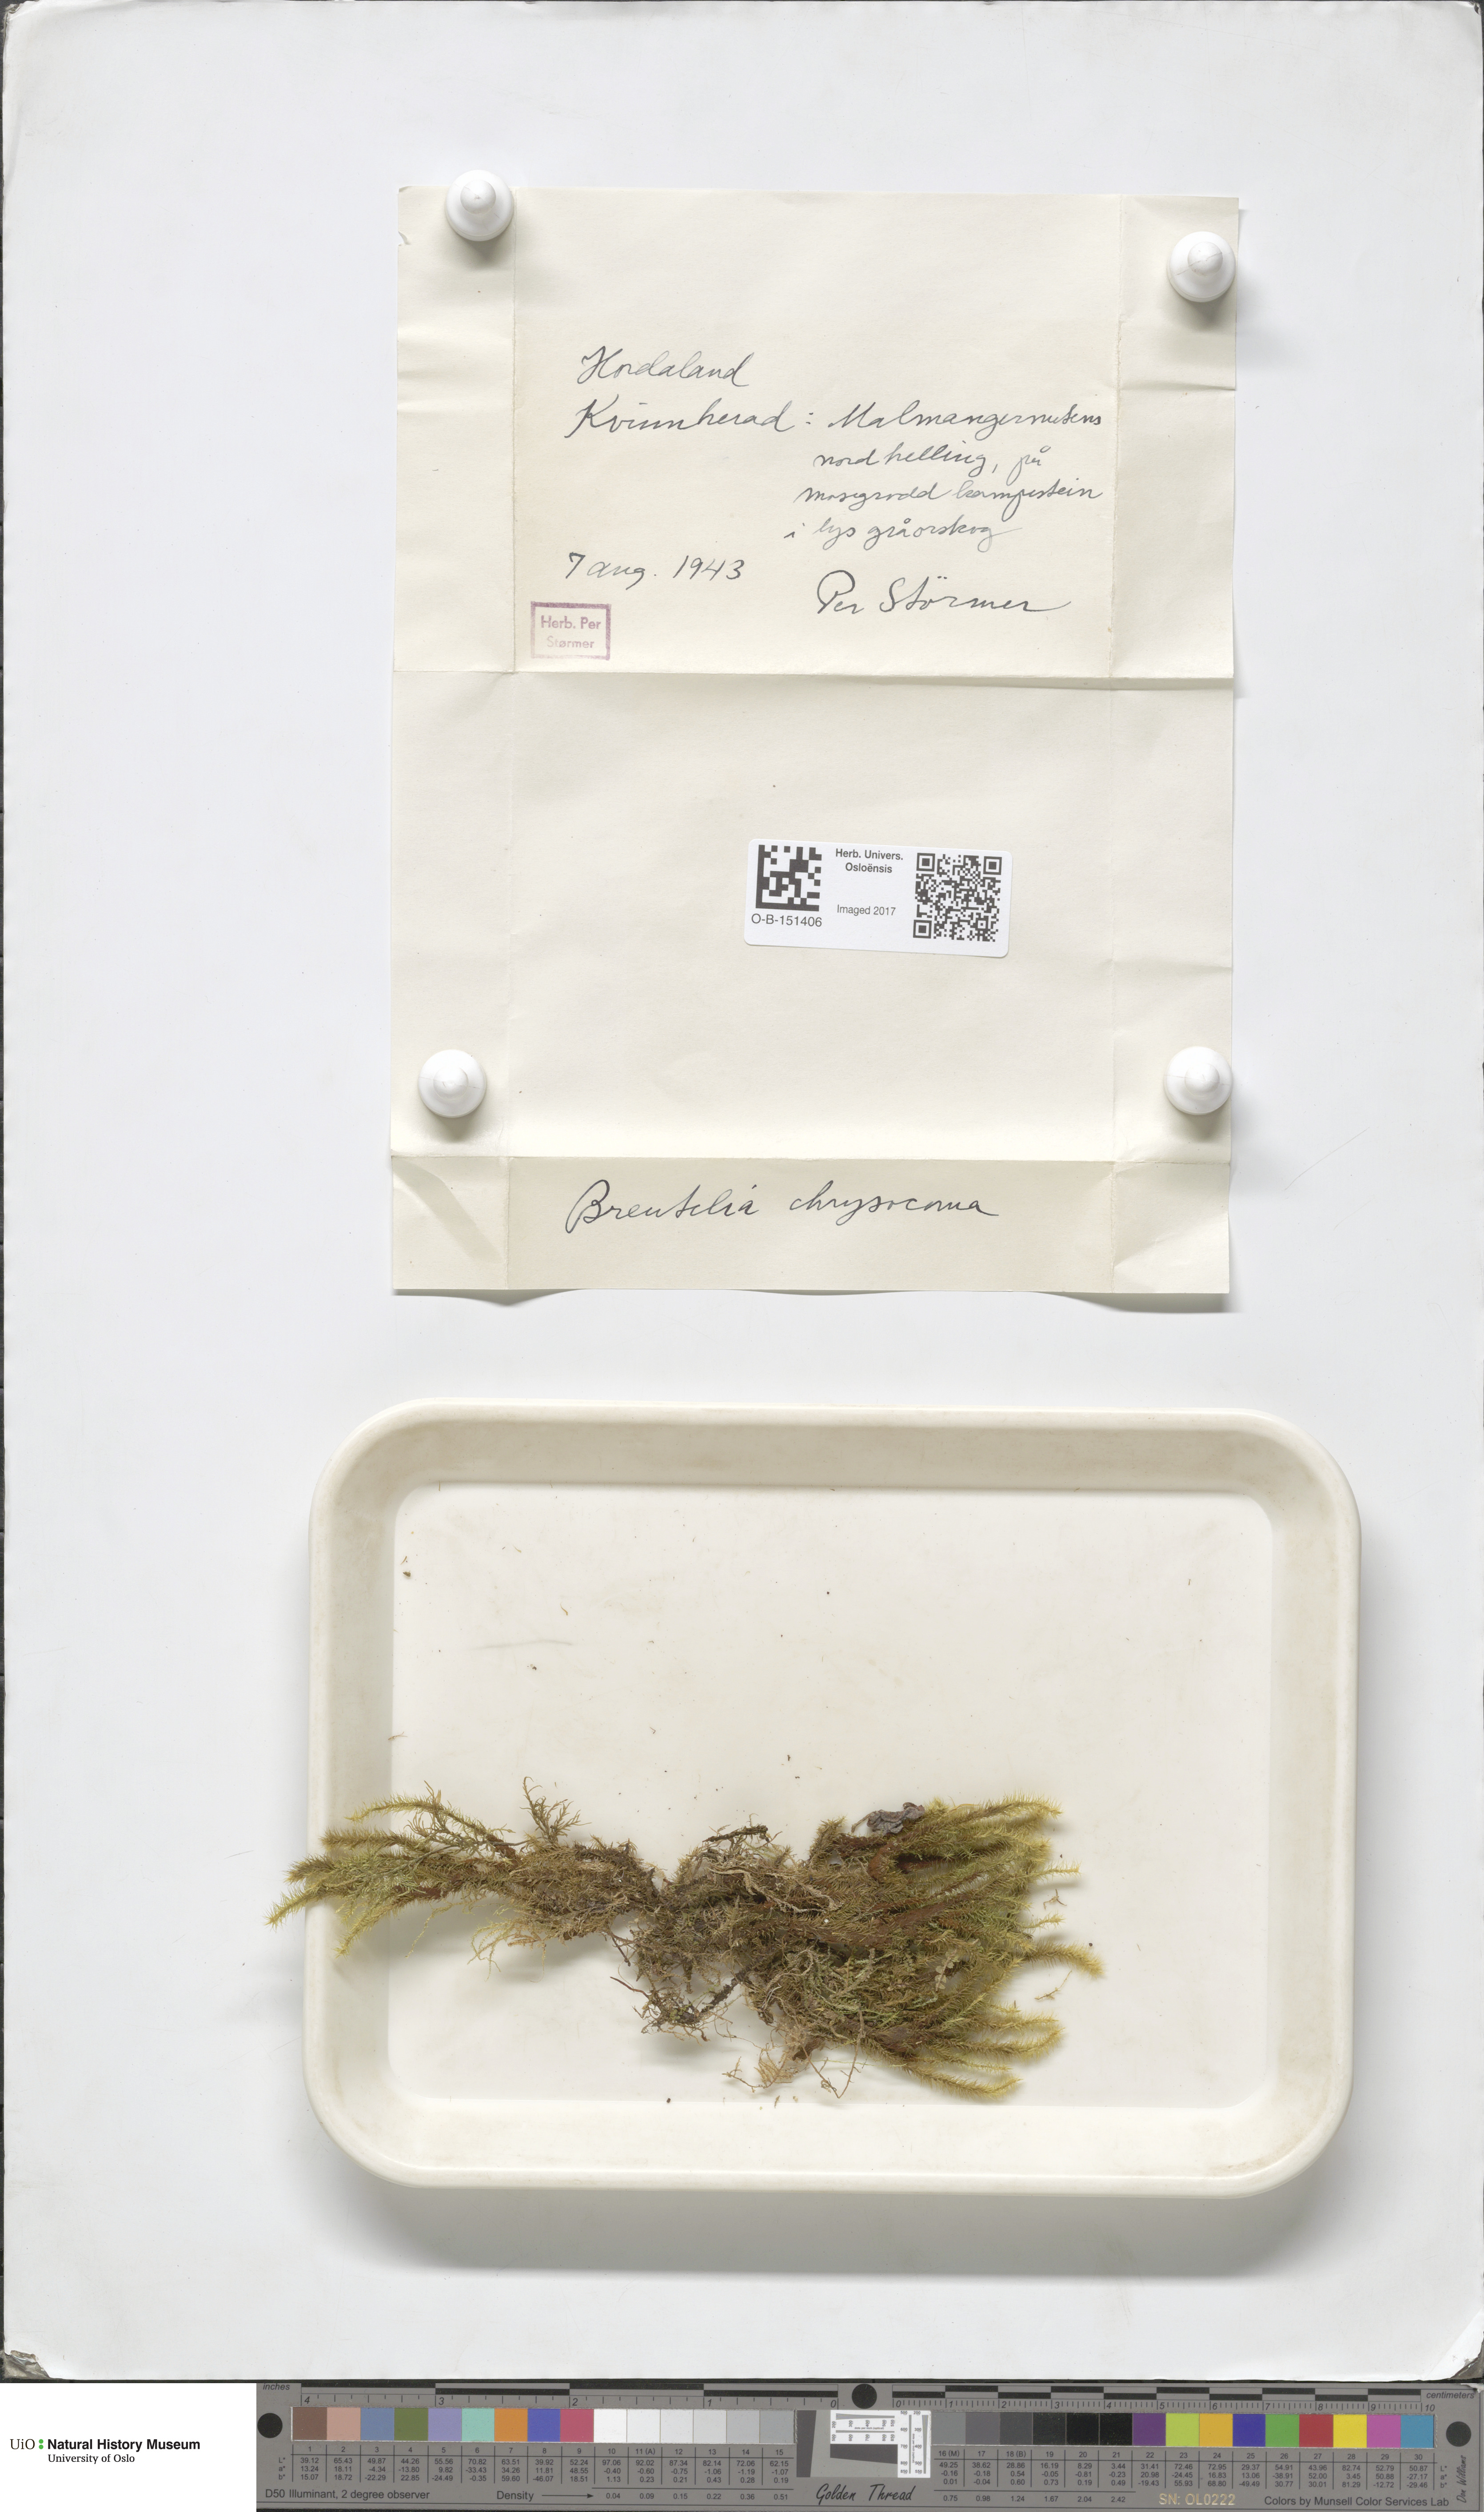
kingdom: Plantae
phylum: Bryophyta
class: Bryopsida
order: Bartramiales
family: Bartramiaceae
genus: Breutelia
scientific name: Breutelia chrysocoma
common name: Bottle-brush moss
